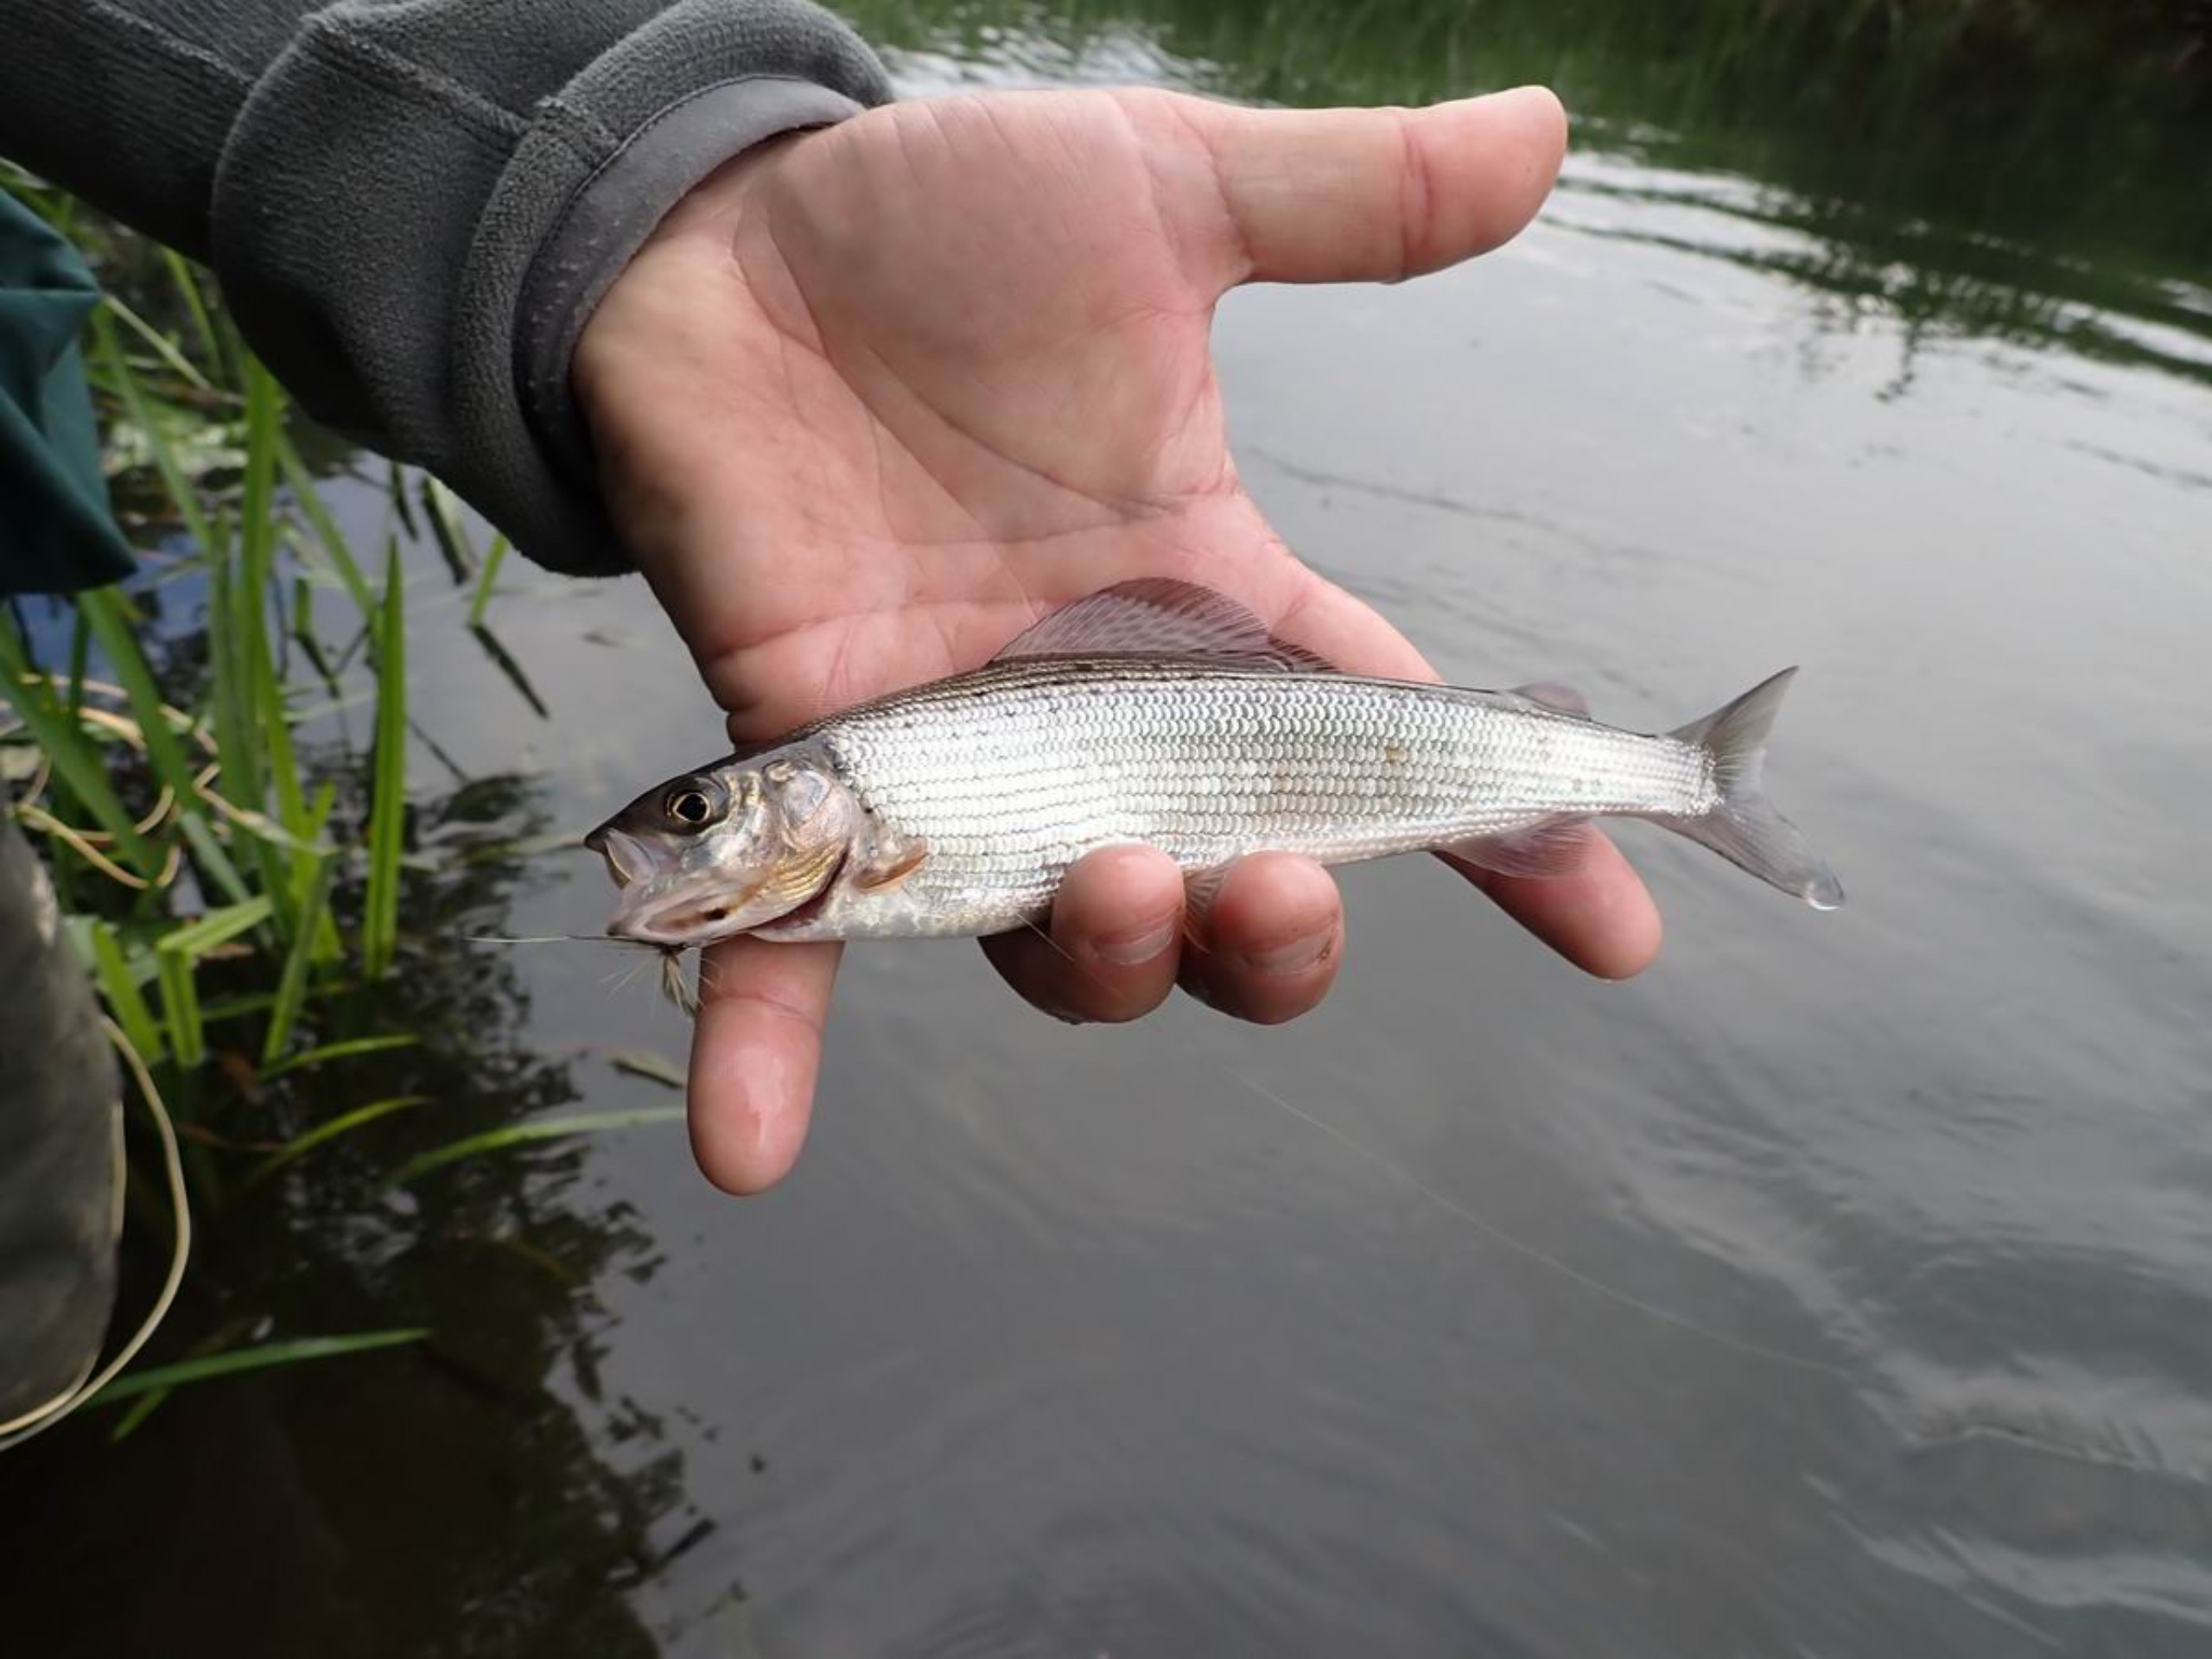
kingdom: Animalia
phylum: Chordata
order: Salmoniformes
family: Salmonidae
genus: Thymallus
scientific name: Thymallus thymallus
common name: Stalling
